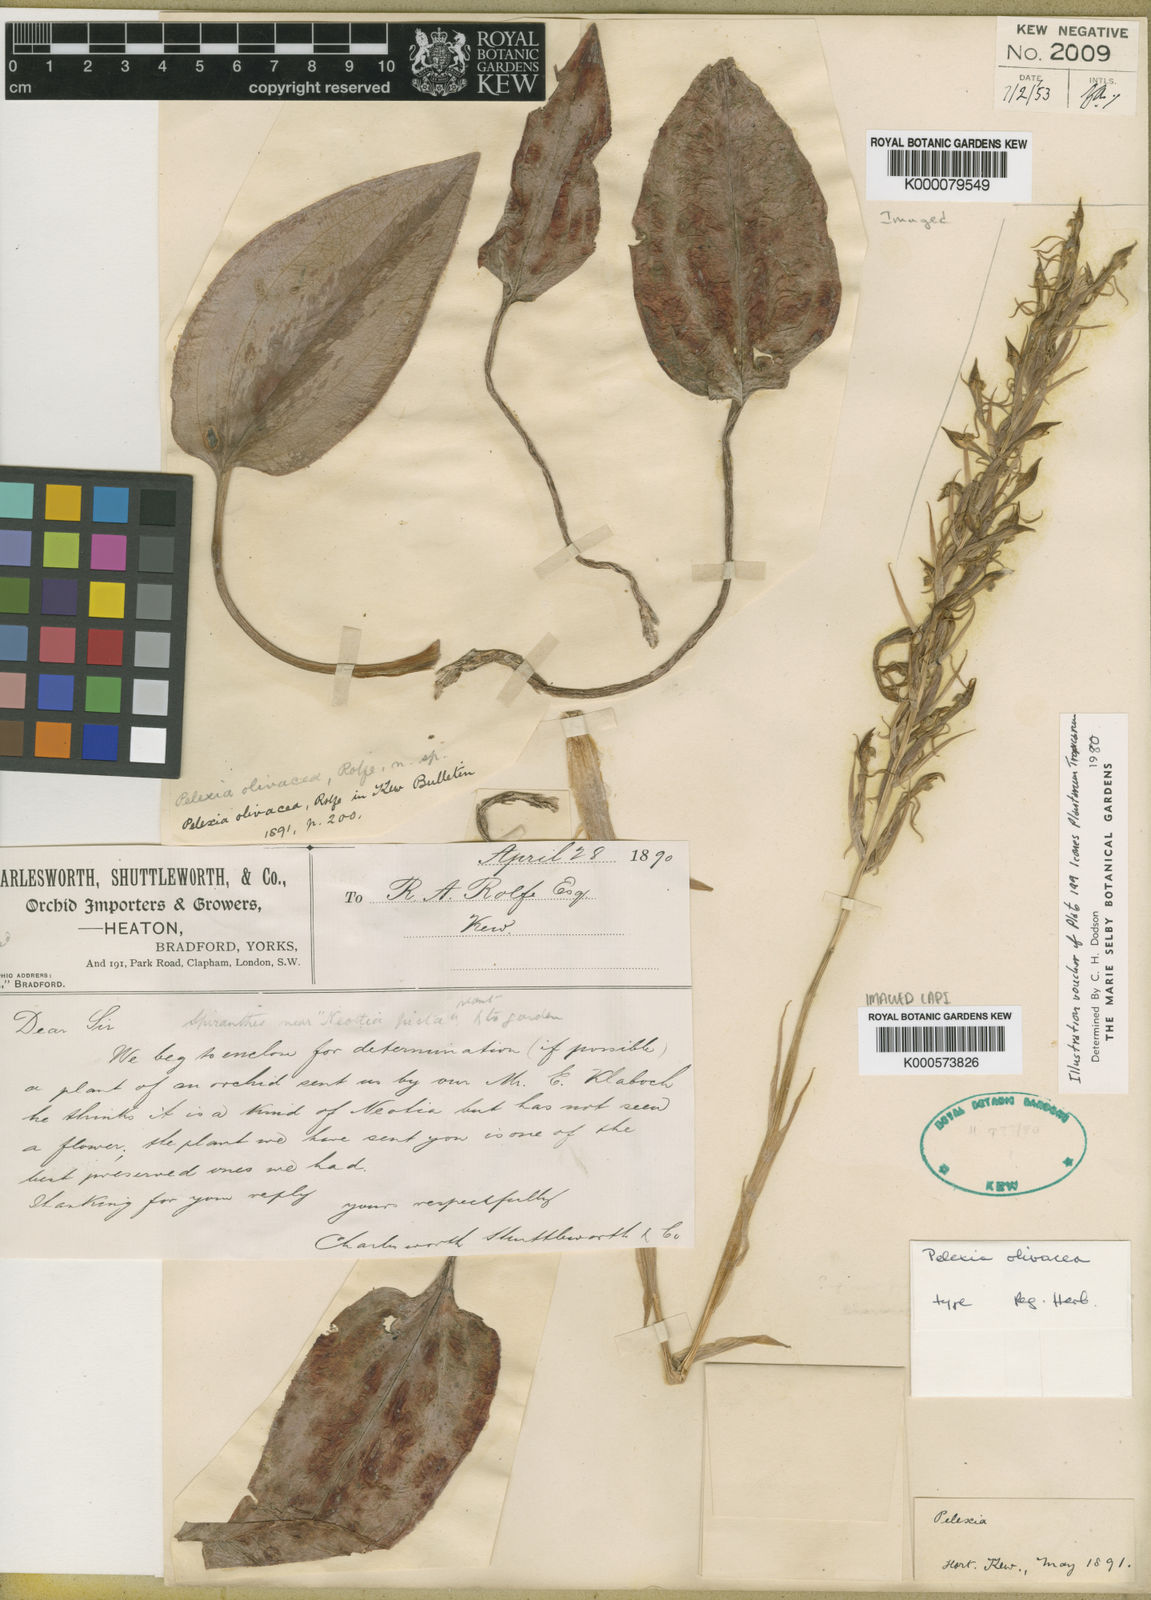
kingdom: Plantae
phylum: Tracheophyta
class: Liliopsida
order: Asparagales
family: Orchidaceae
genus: Pelexia
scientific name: Pelexia olivacea
